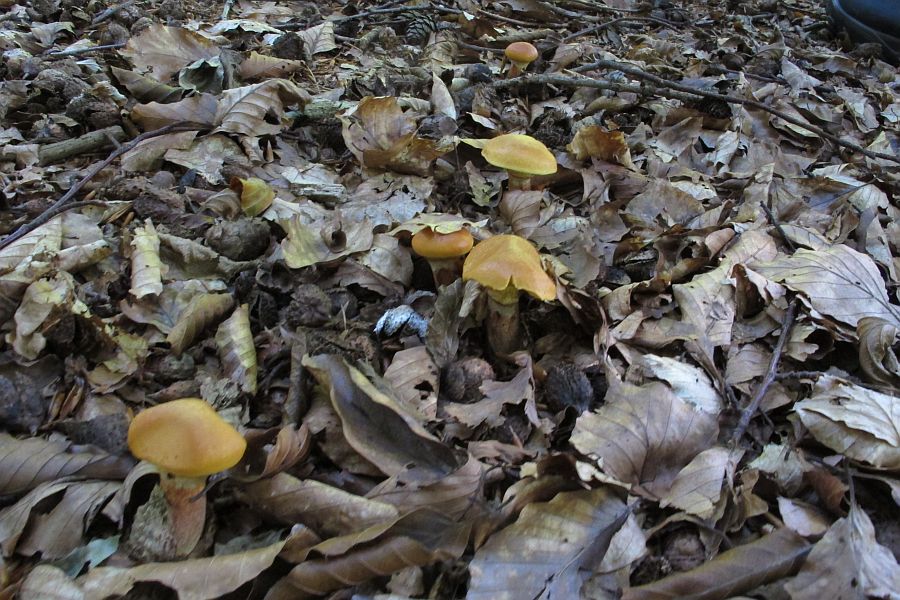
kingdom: Fungi
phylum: Basidiomycota
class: Agaricomycetes
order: Boletales
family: Suillaceae
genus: Suillus
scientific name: Suillus grevillei
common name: lærke-slimrørhat
